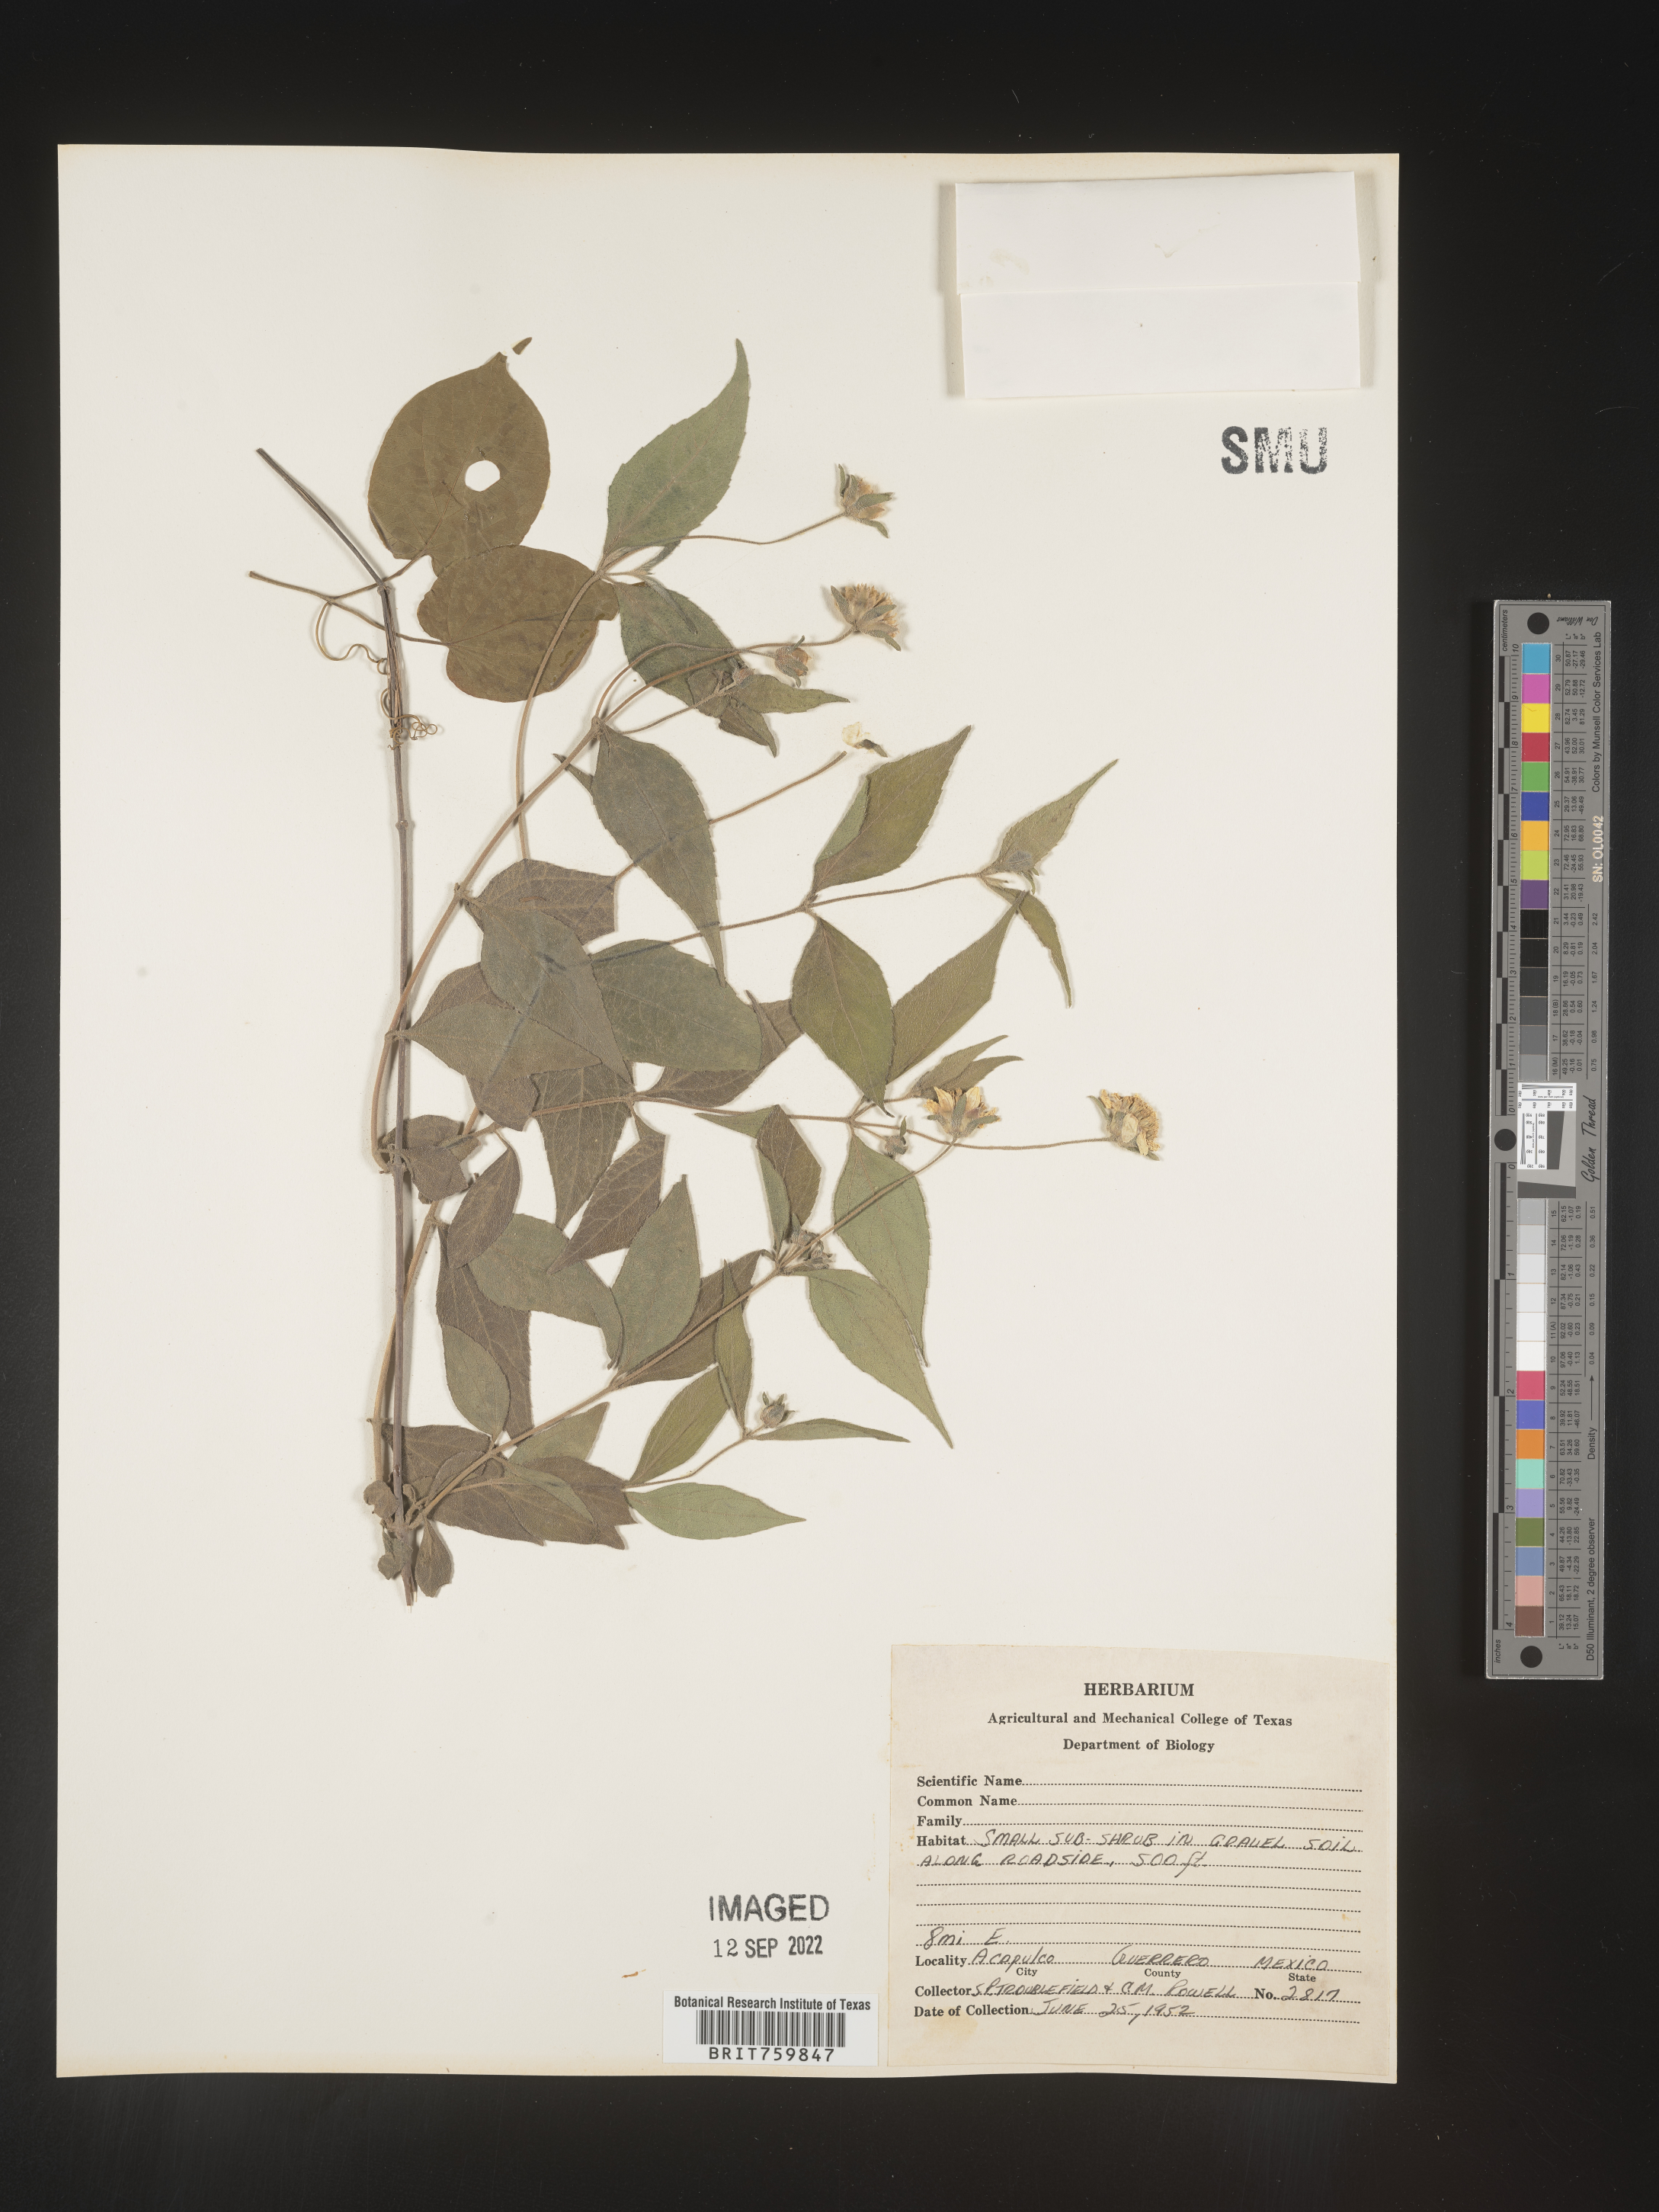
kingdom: Plantae
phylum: Tracheophyta
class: Magnoliopsida
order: Asterales
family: Asteraceae
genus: Zexmenia
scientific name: Zexmenia
